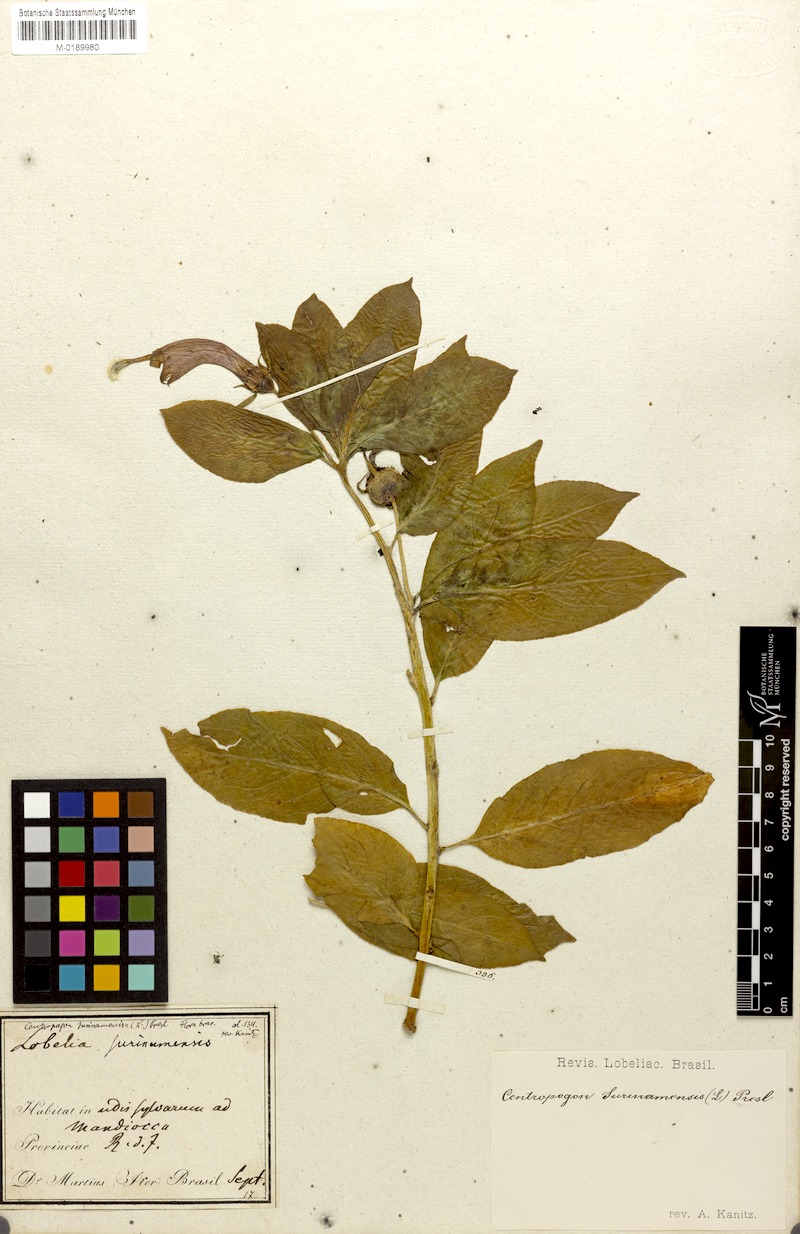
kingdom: Plantae
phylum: Tracheophyta
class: Magnoliopsida
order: Asterales
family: Campanulaceae
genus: Centropogon
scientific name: Centropogon cornutus
